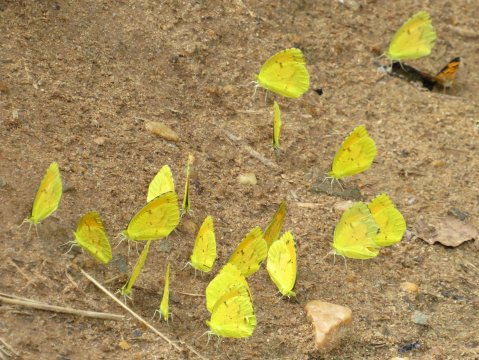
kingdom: Animalia
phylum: Arthropoda
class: Insecta
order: Lepidoptera
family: Pieridae
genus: Abaeis
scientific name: Abaeis nicippe
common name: Sleepy Orange
